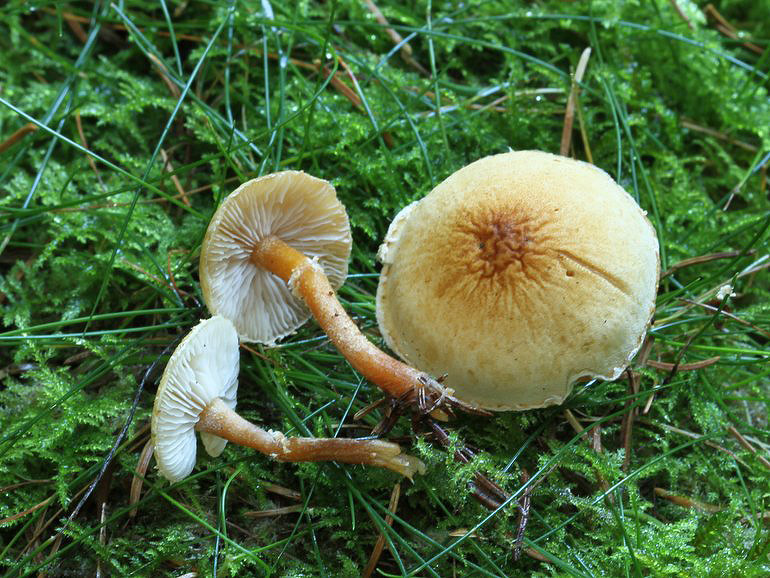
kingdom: Fungi
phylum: Basidiomycota
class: Agaricomycetes
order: Agaricales
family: Tricholomataceae
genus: Cystoderma
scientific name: Cystoderma amianthinum
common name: okkergul grynhat
